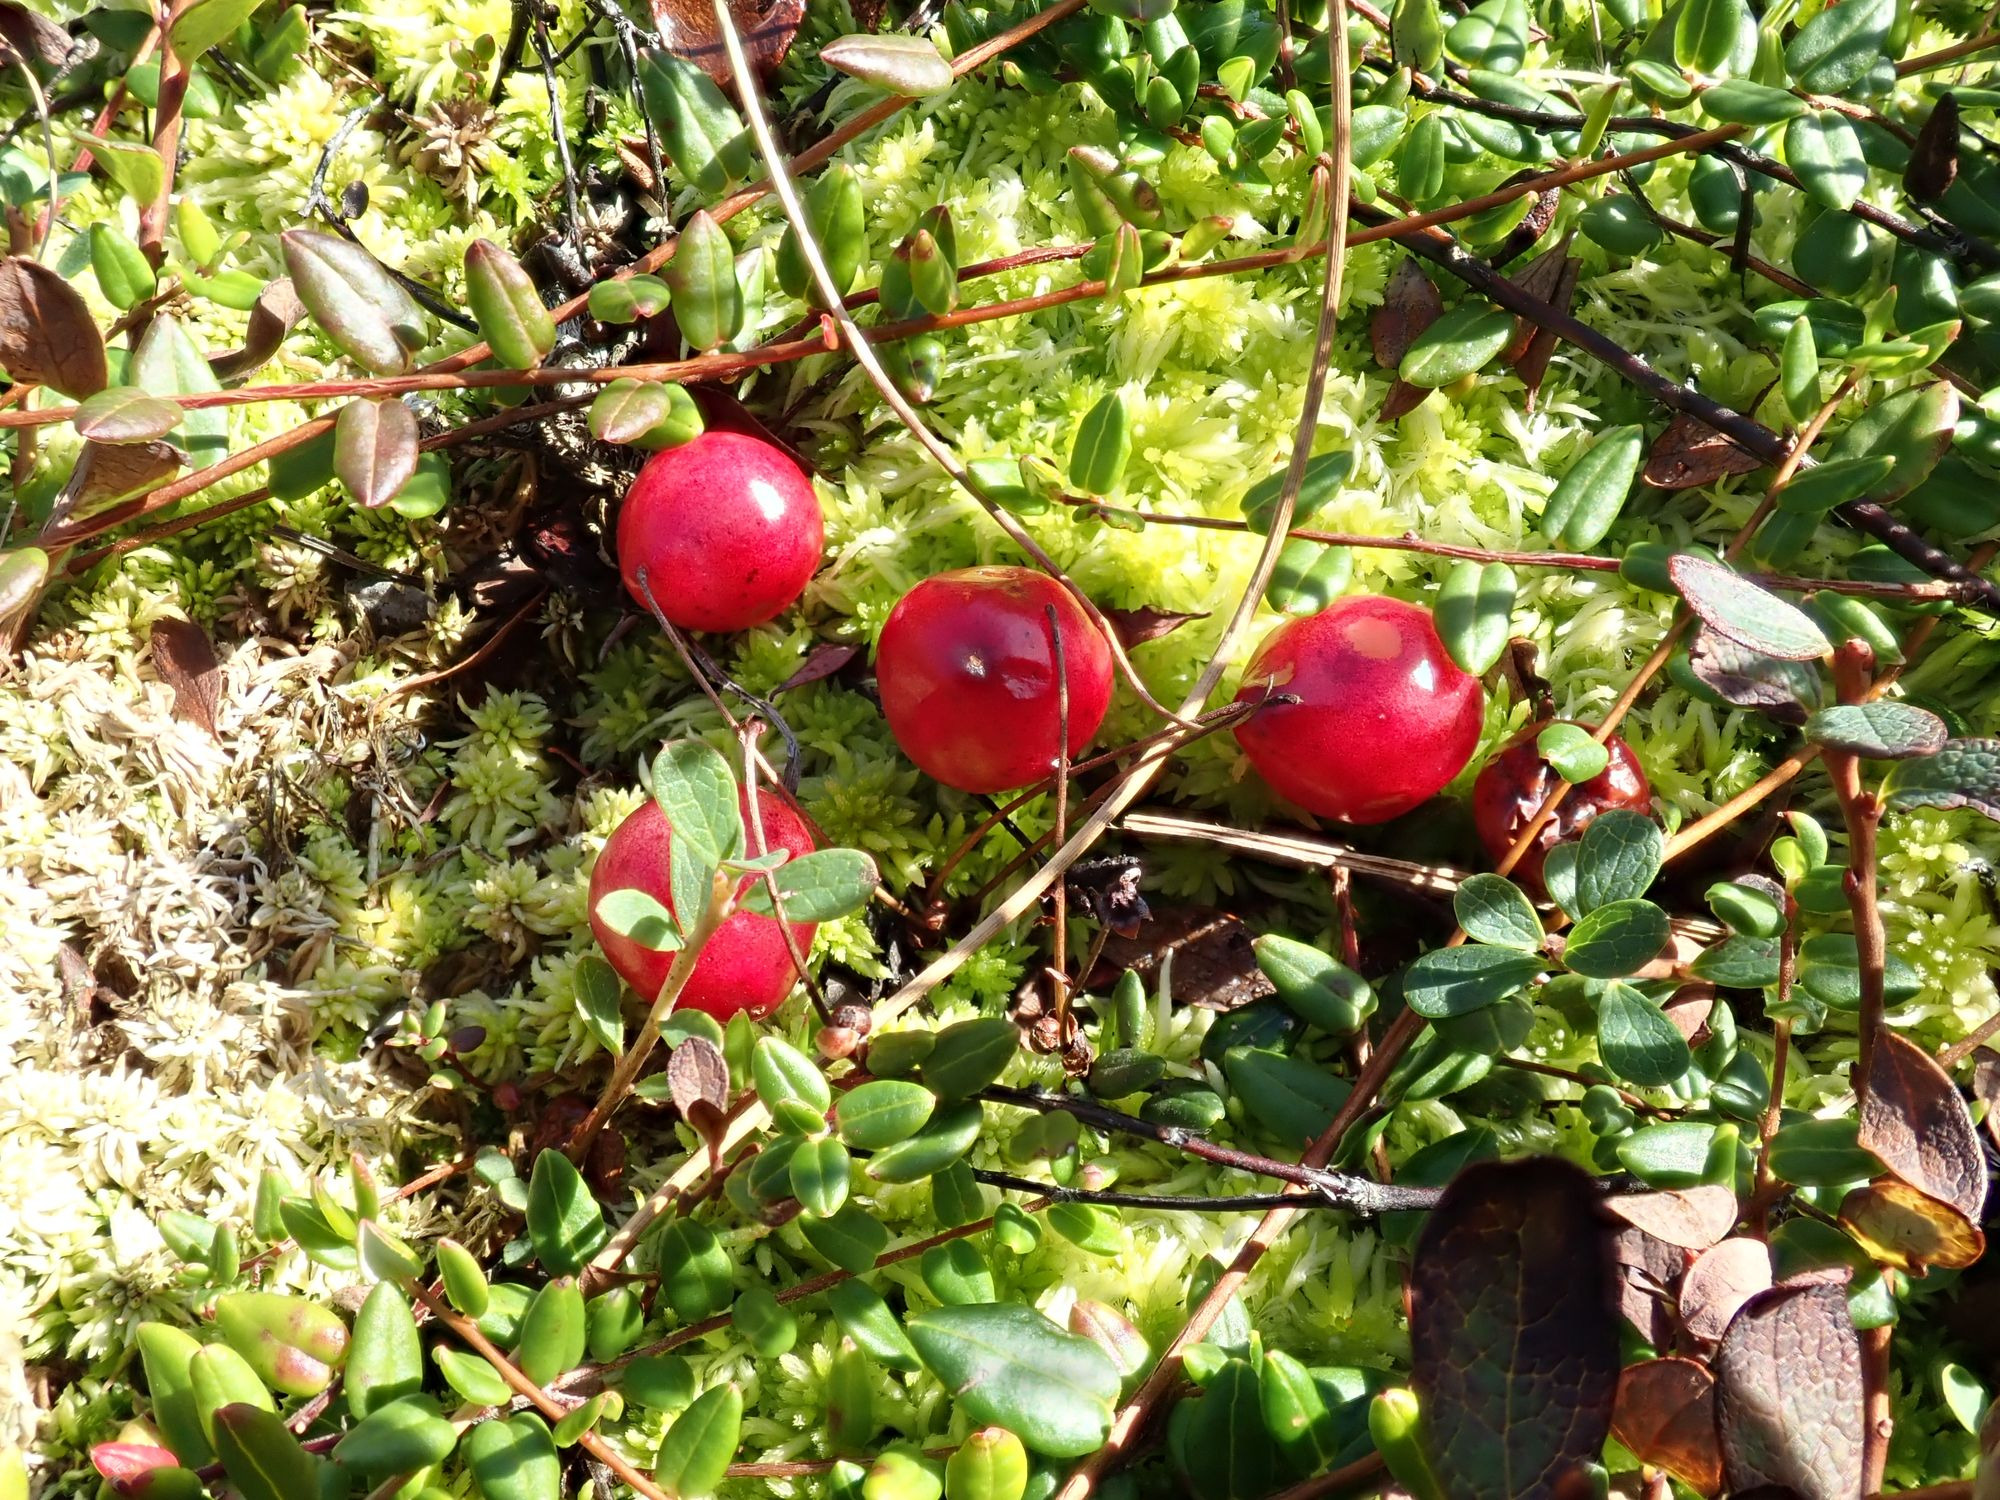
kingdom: Plantae
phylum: Tracheophyta
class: Magnoliopsida
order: Ericales
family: Ericaceae
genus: Vaccinium
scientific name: Vaccinium oxycoccos
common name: Tranebær
